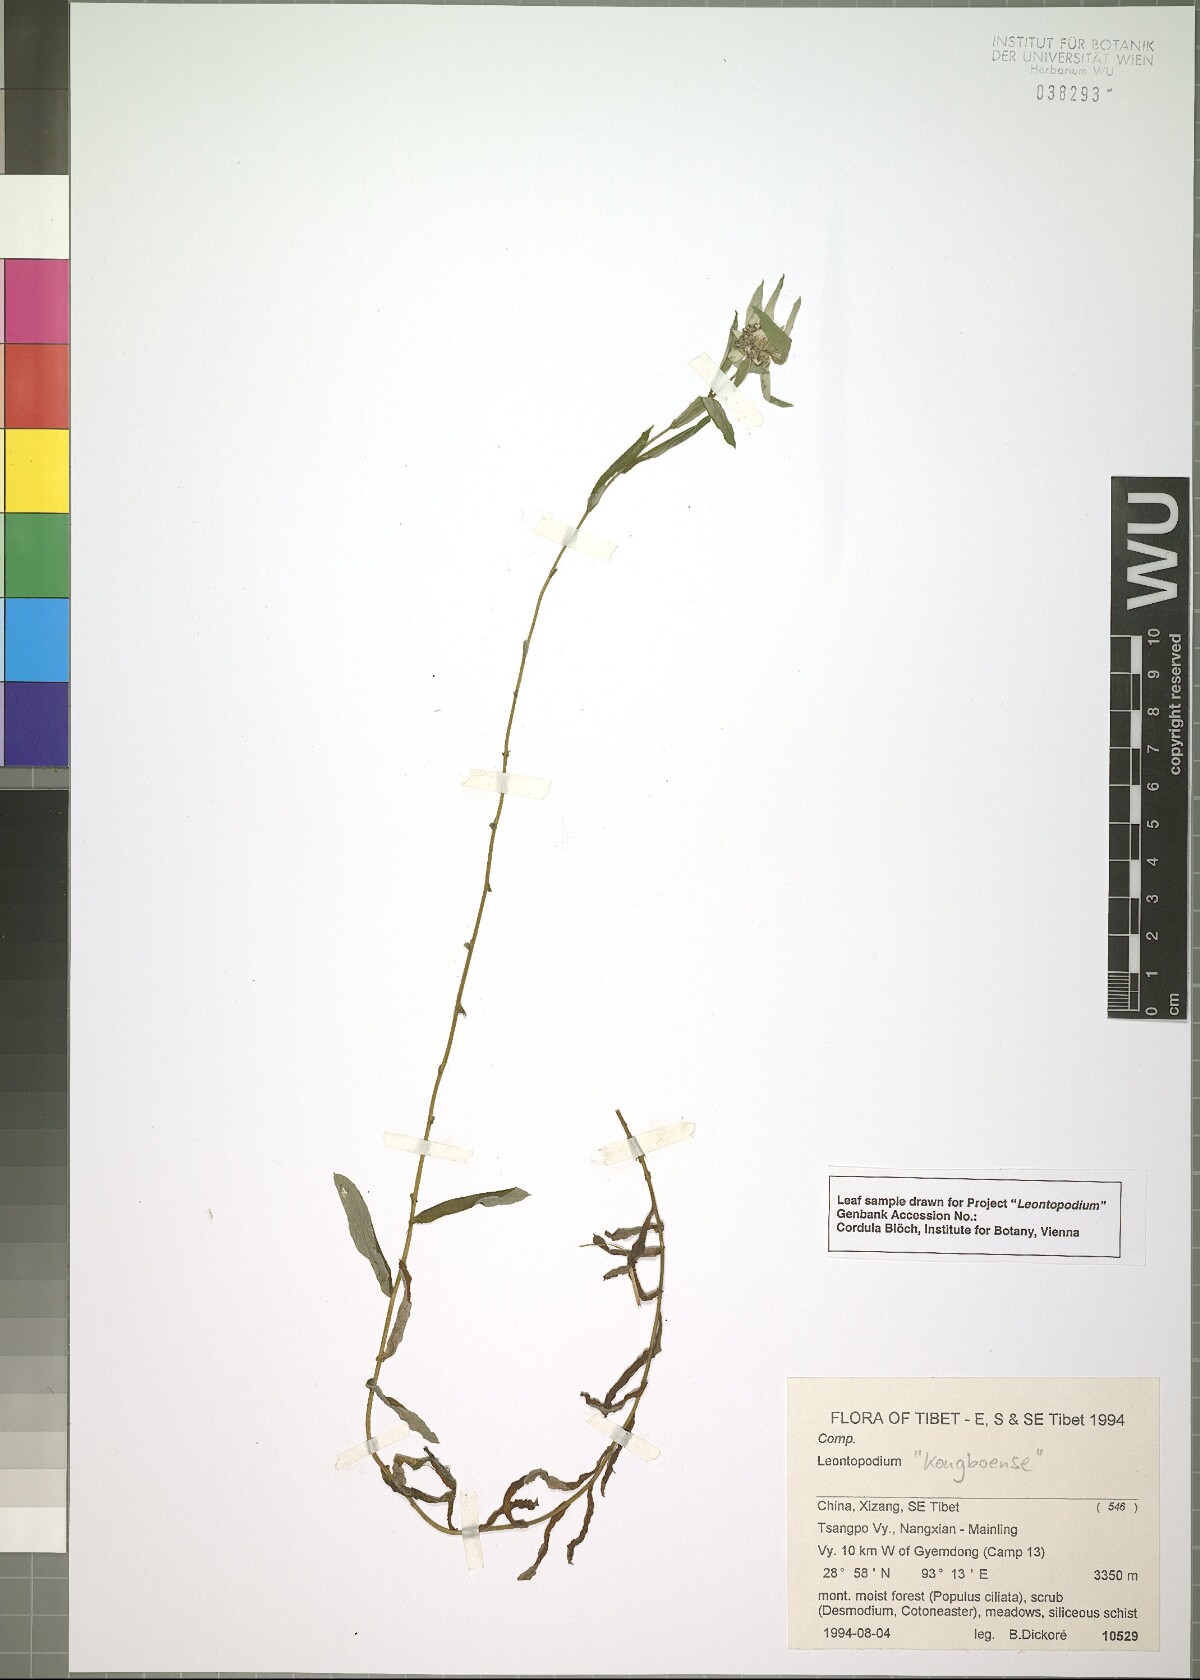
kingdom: Plantae
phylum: Tracheophyta
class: Magnoliopsida
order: Asterales
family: Asteraceae
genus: Leontopodium
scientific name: Leontopodium
